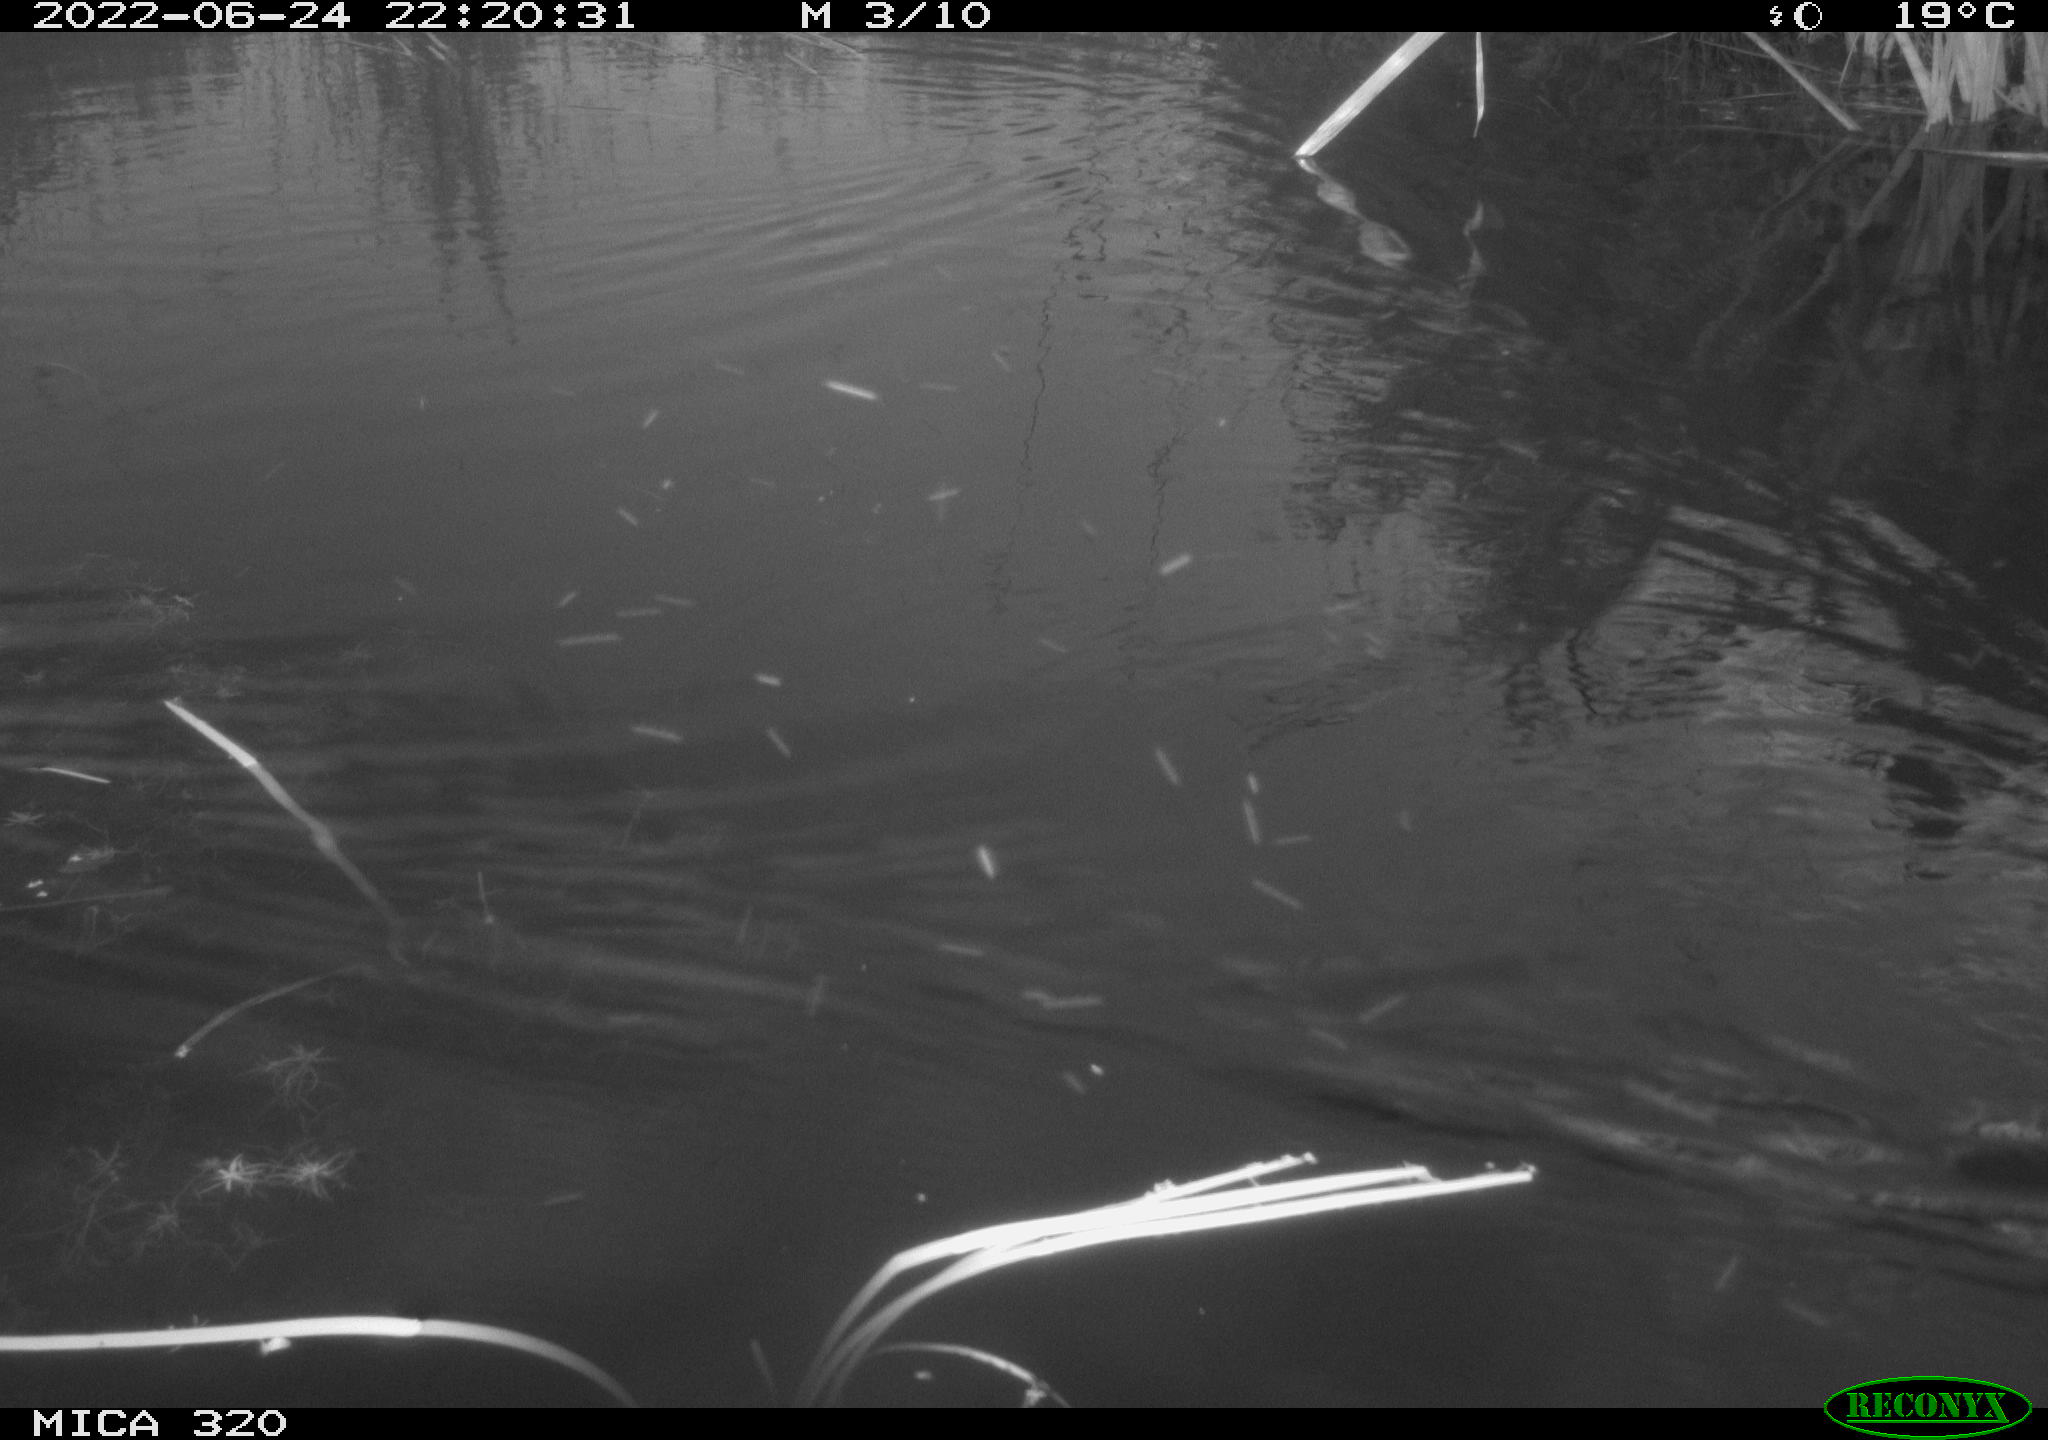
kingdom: Animalia
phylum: Chordata
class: Aves
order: Gruiformes
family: Rallidae
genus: Gallinula
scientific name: Gallinula chloropus
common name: Common moorhen
